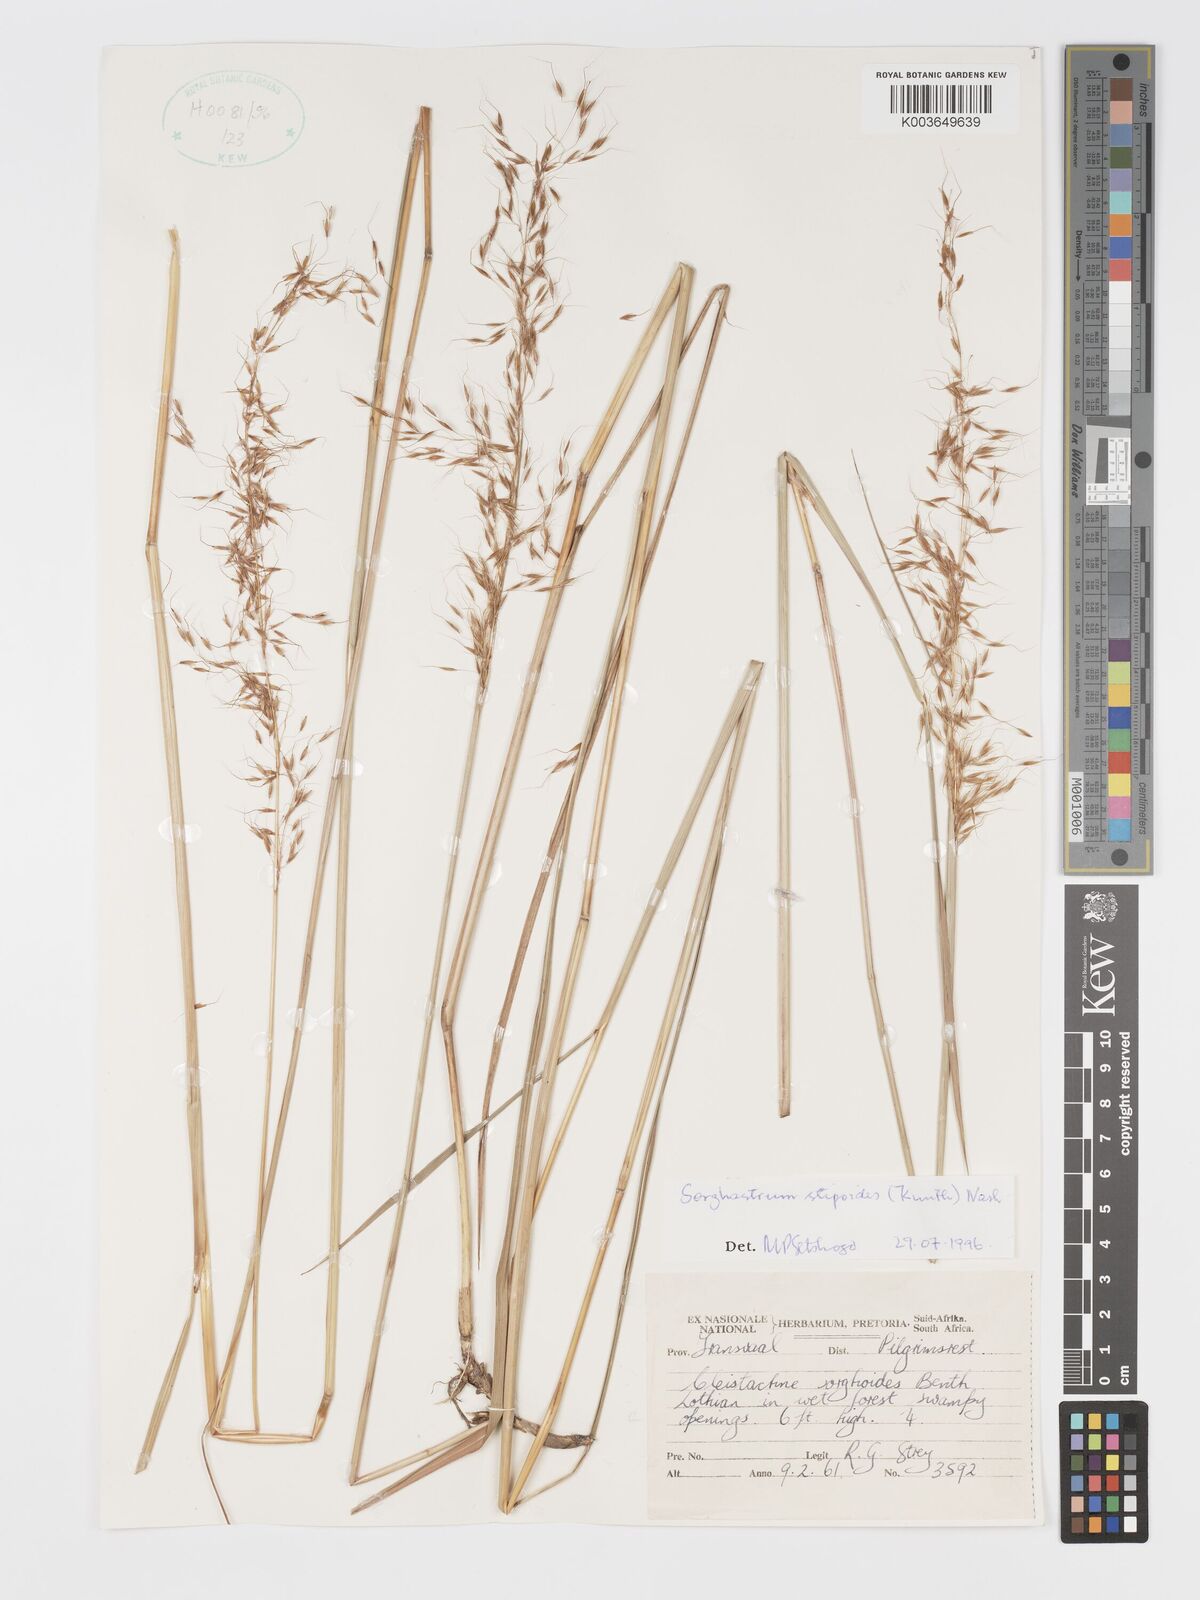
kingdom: Plantae
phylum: Tracheophyta
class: Liliopsida
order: Poales
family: Poaceae
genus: Sorghastrum
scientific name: Sorghastrum stipoides
